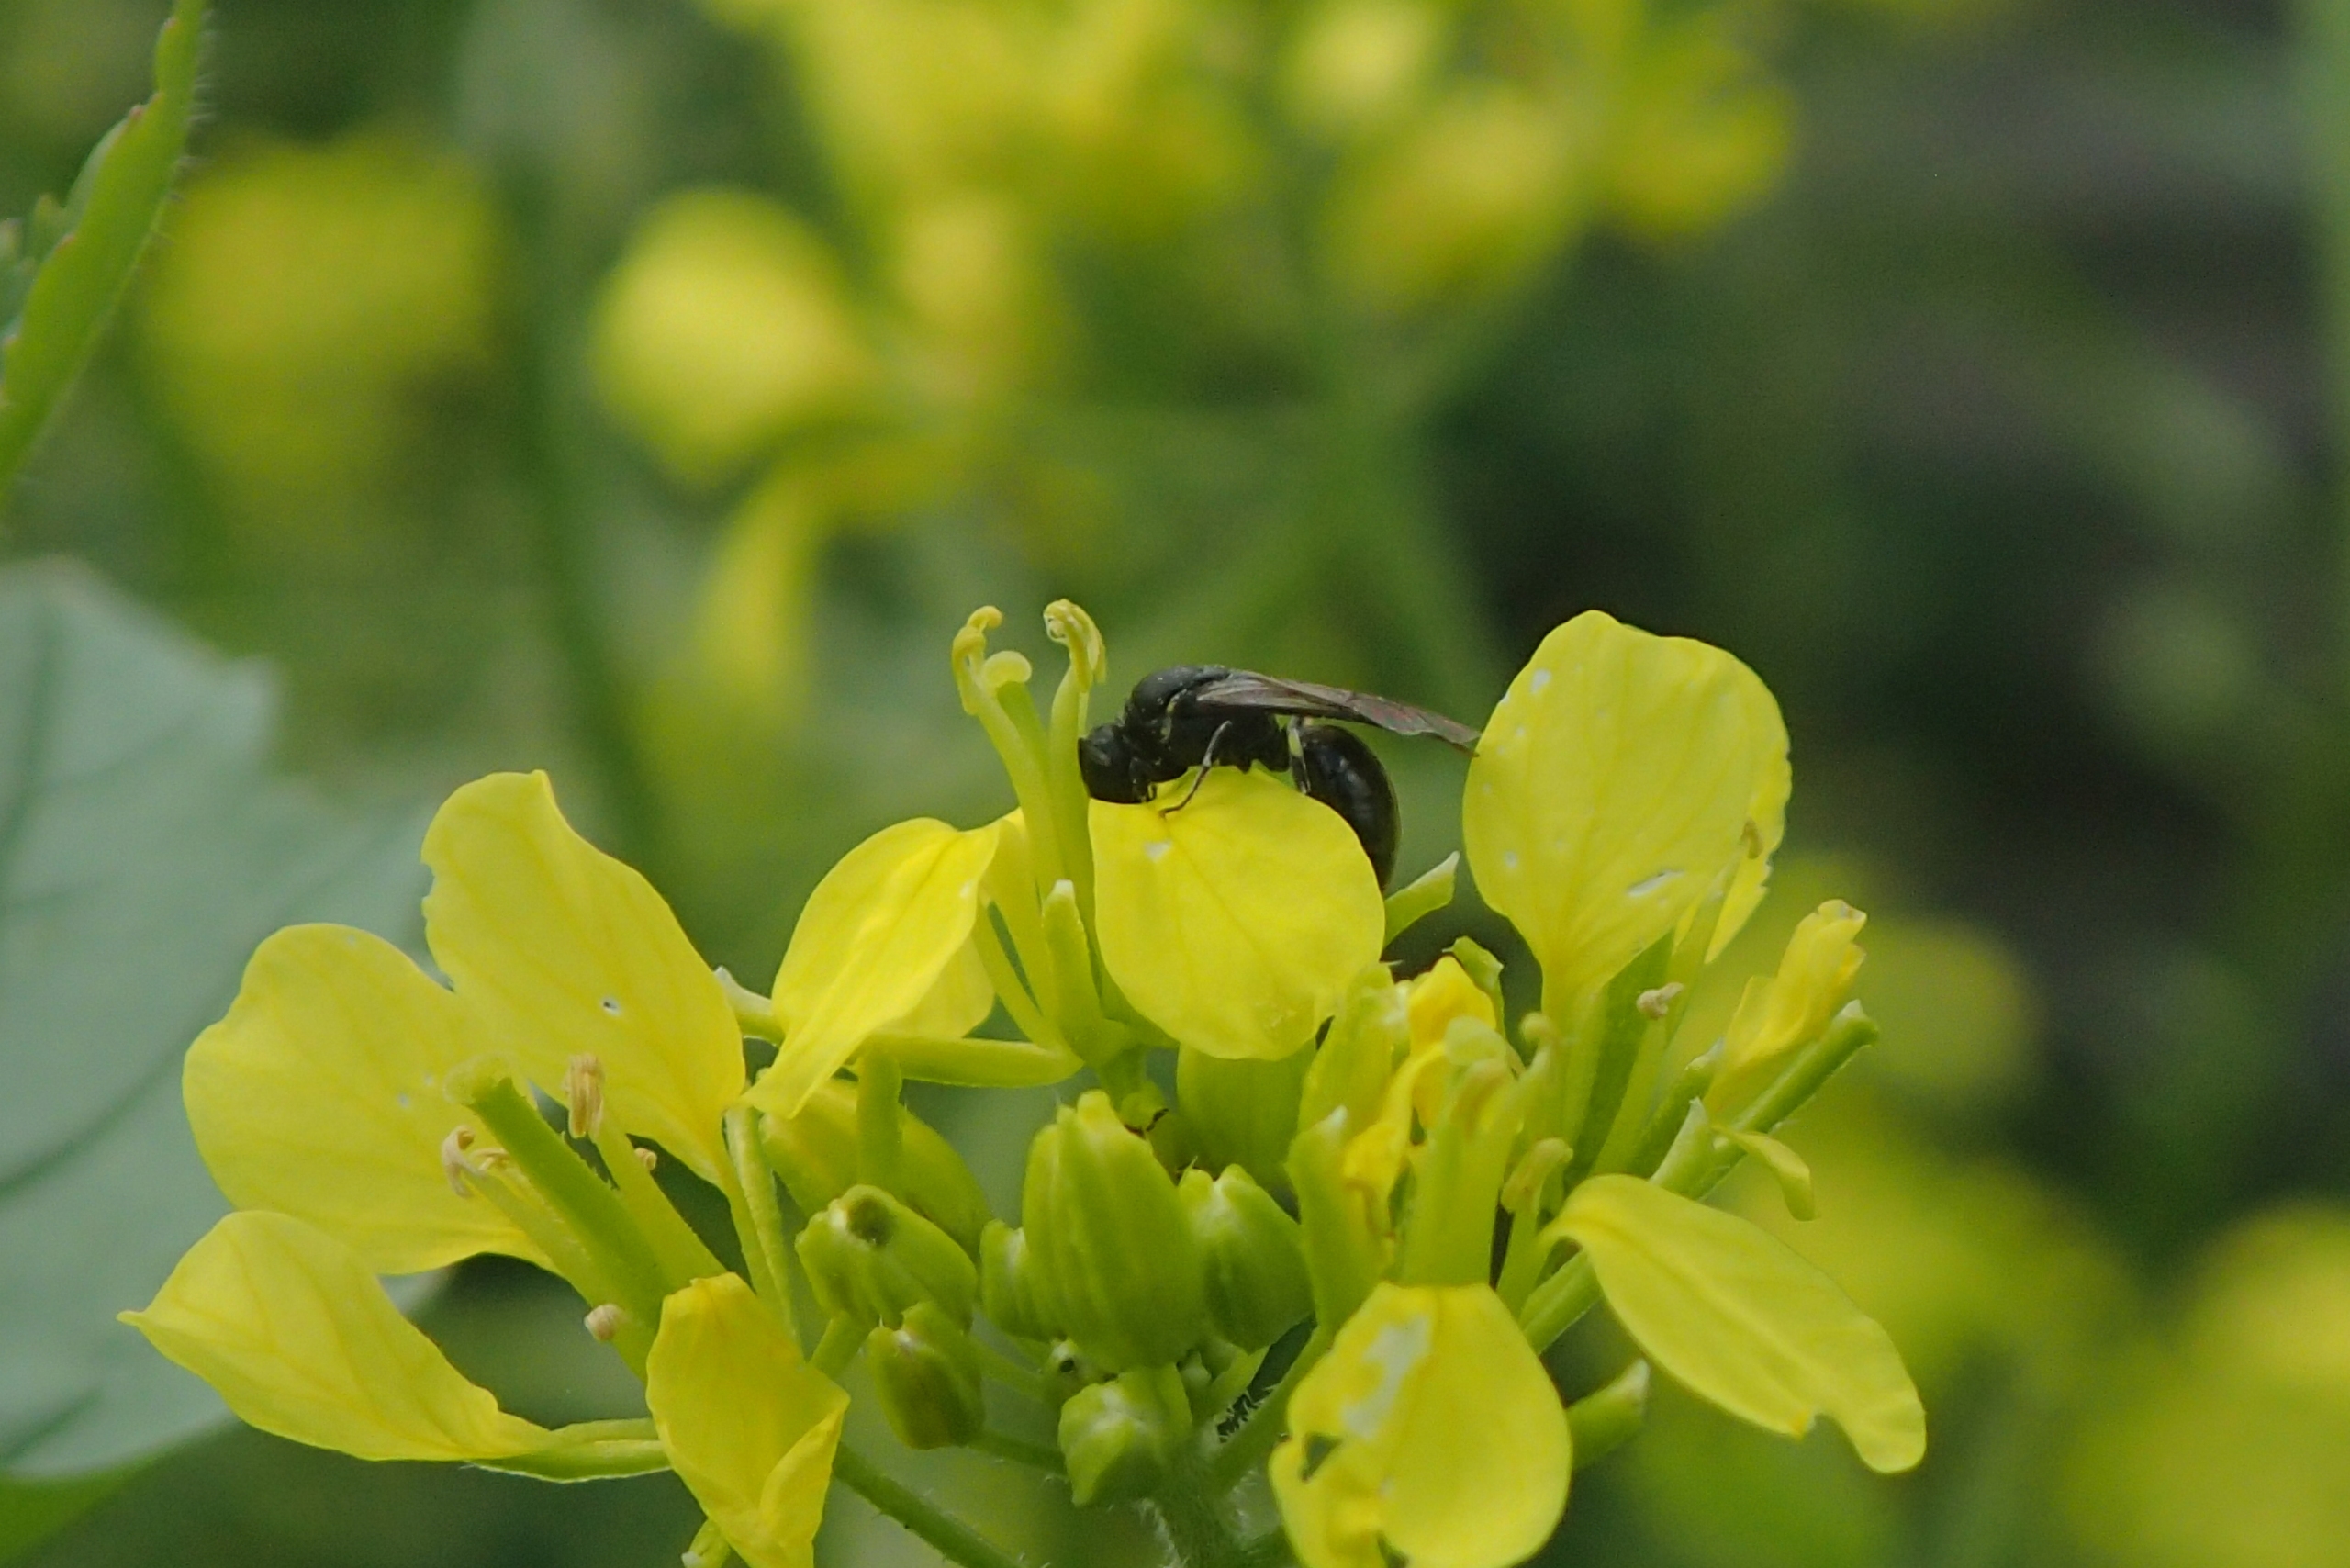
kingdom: Animalia
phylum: Arthropoda
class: Insecta
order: Hymenoptera
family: Colletidae
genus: Hylaeus
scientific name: Hylaeus
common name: Maskebier
